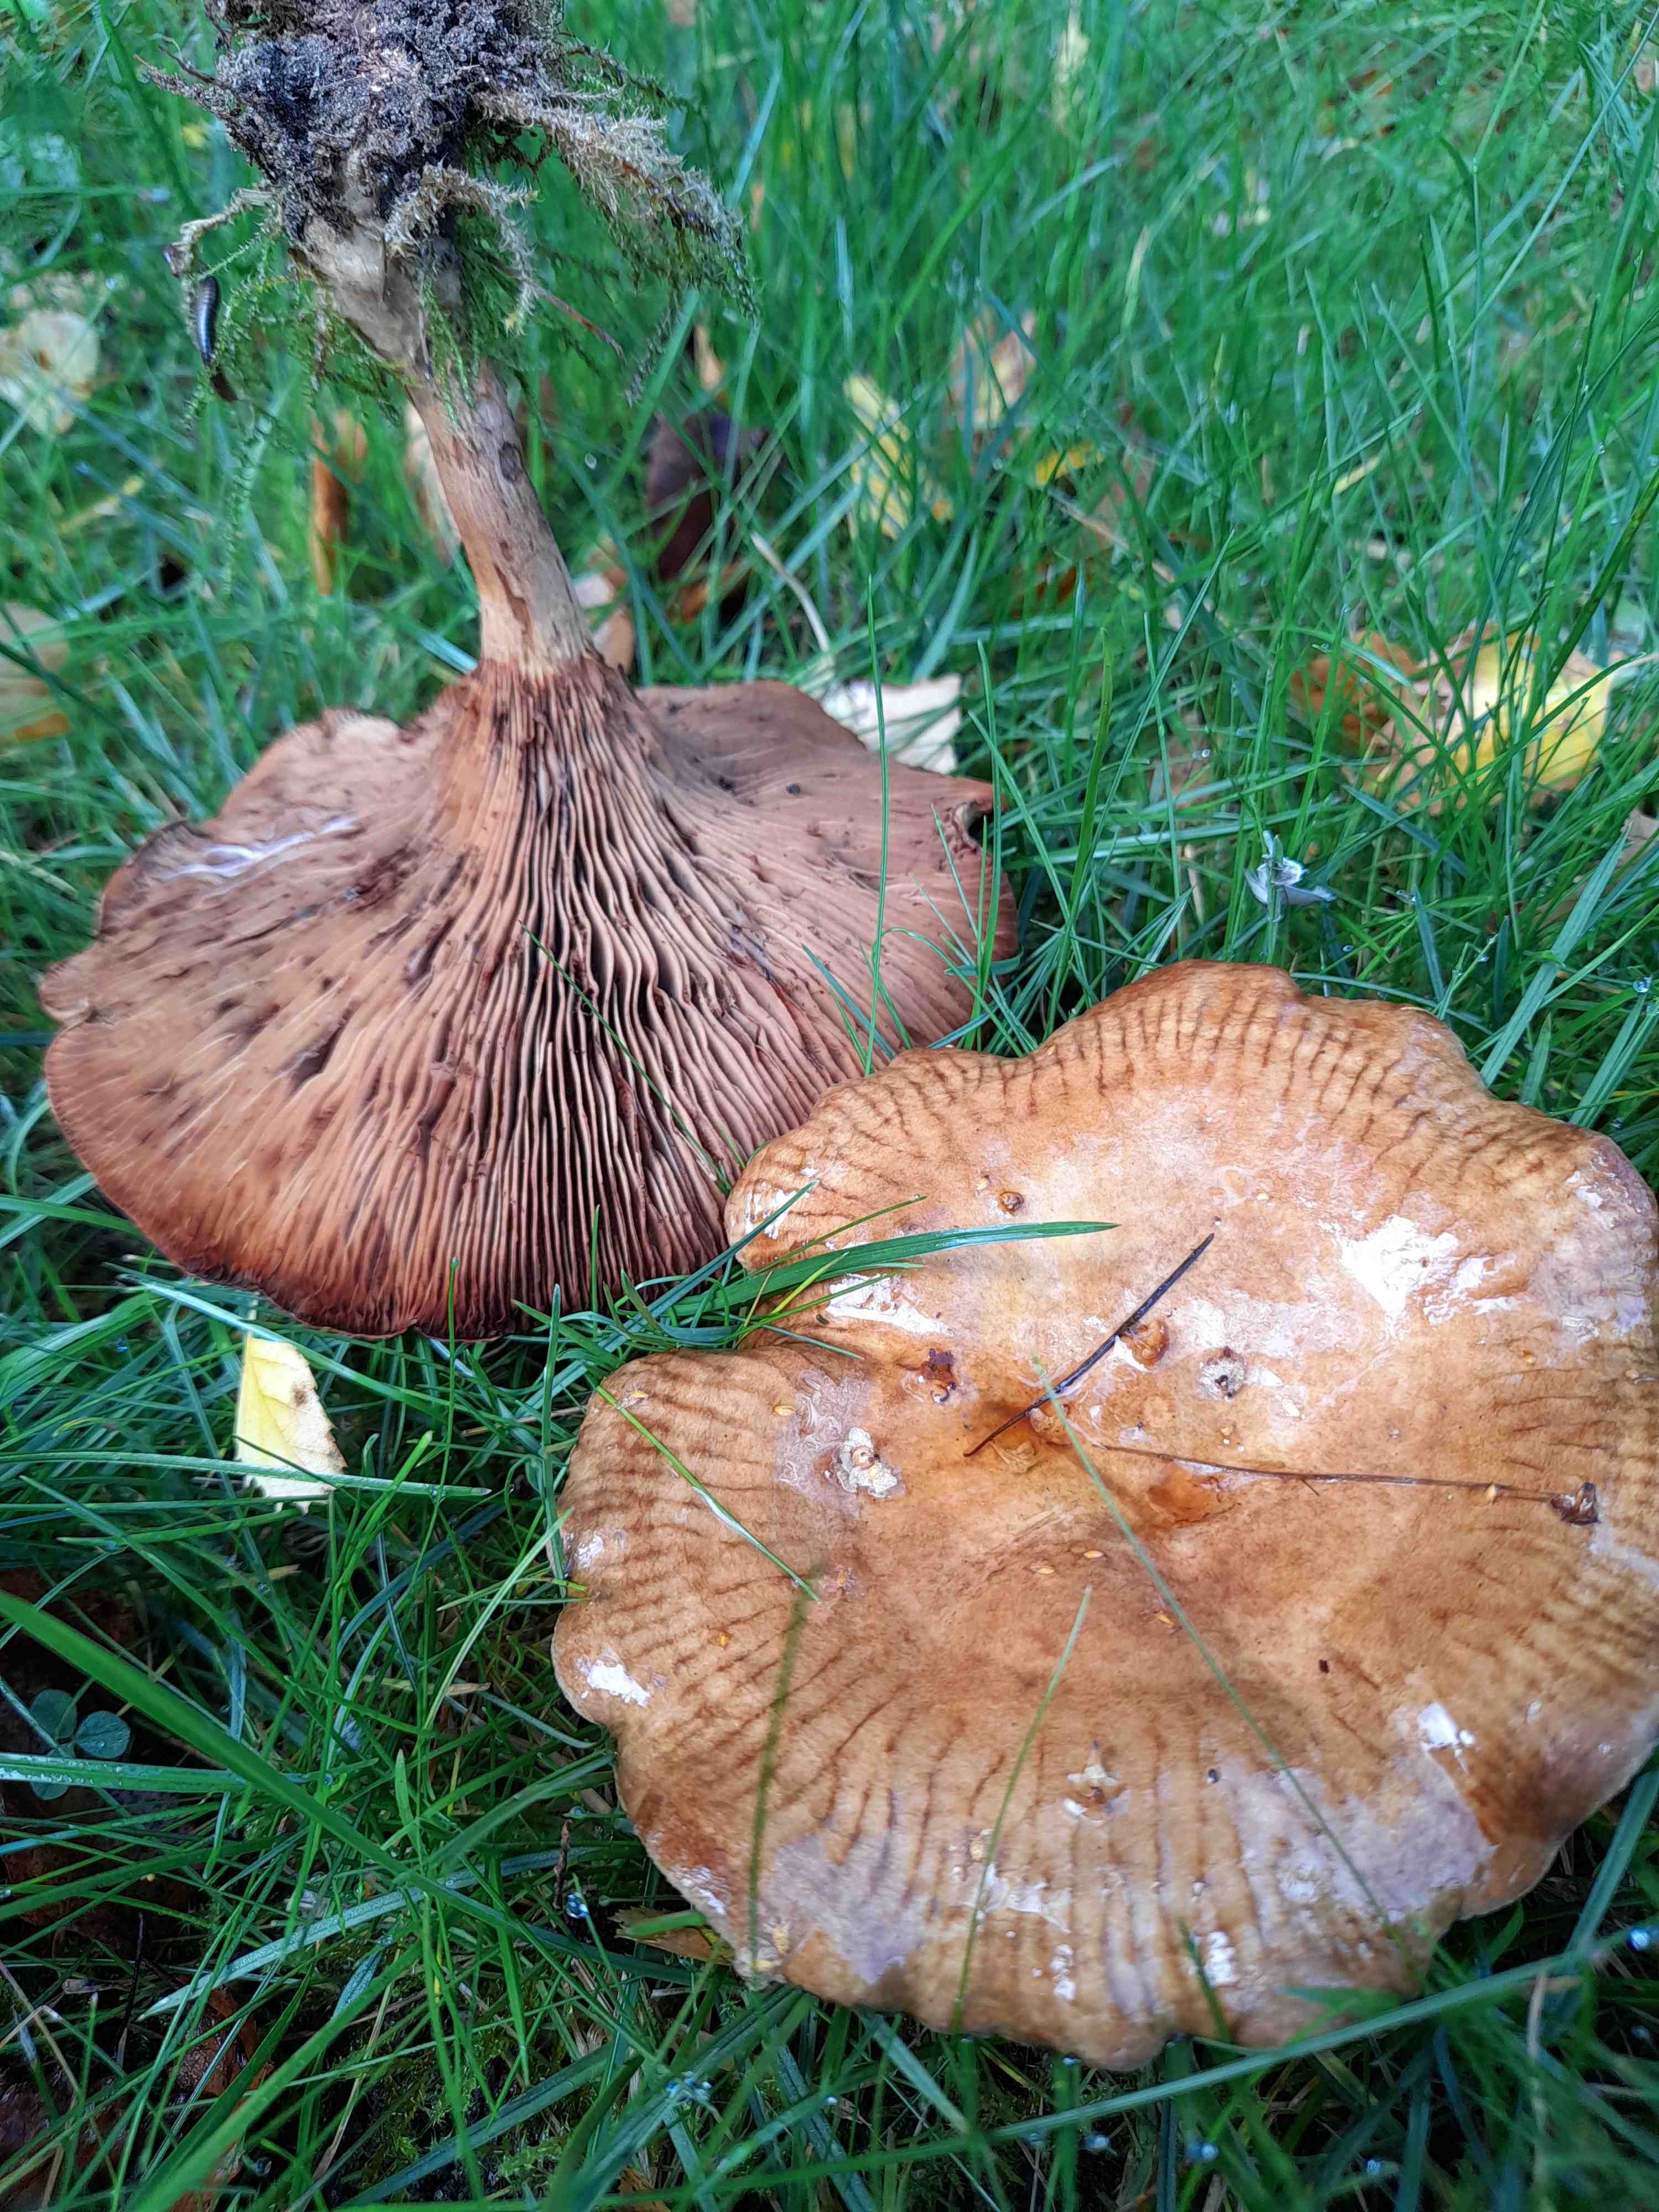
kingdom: Fungi
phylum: Basidiomycota
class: Agaricomycetes
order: Boletales
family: Paxillaceae
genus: Paxillus
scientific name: Paxillus involutus
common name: almindelig netbladhat
